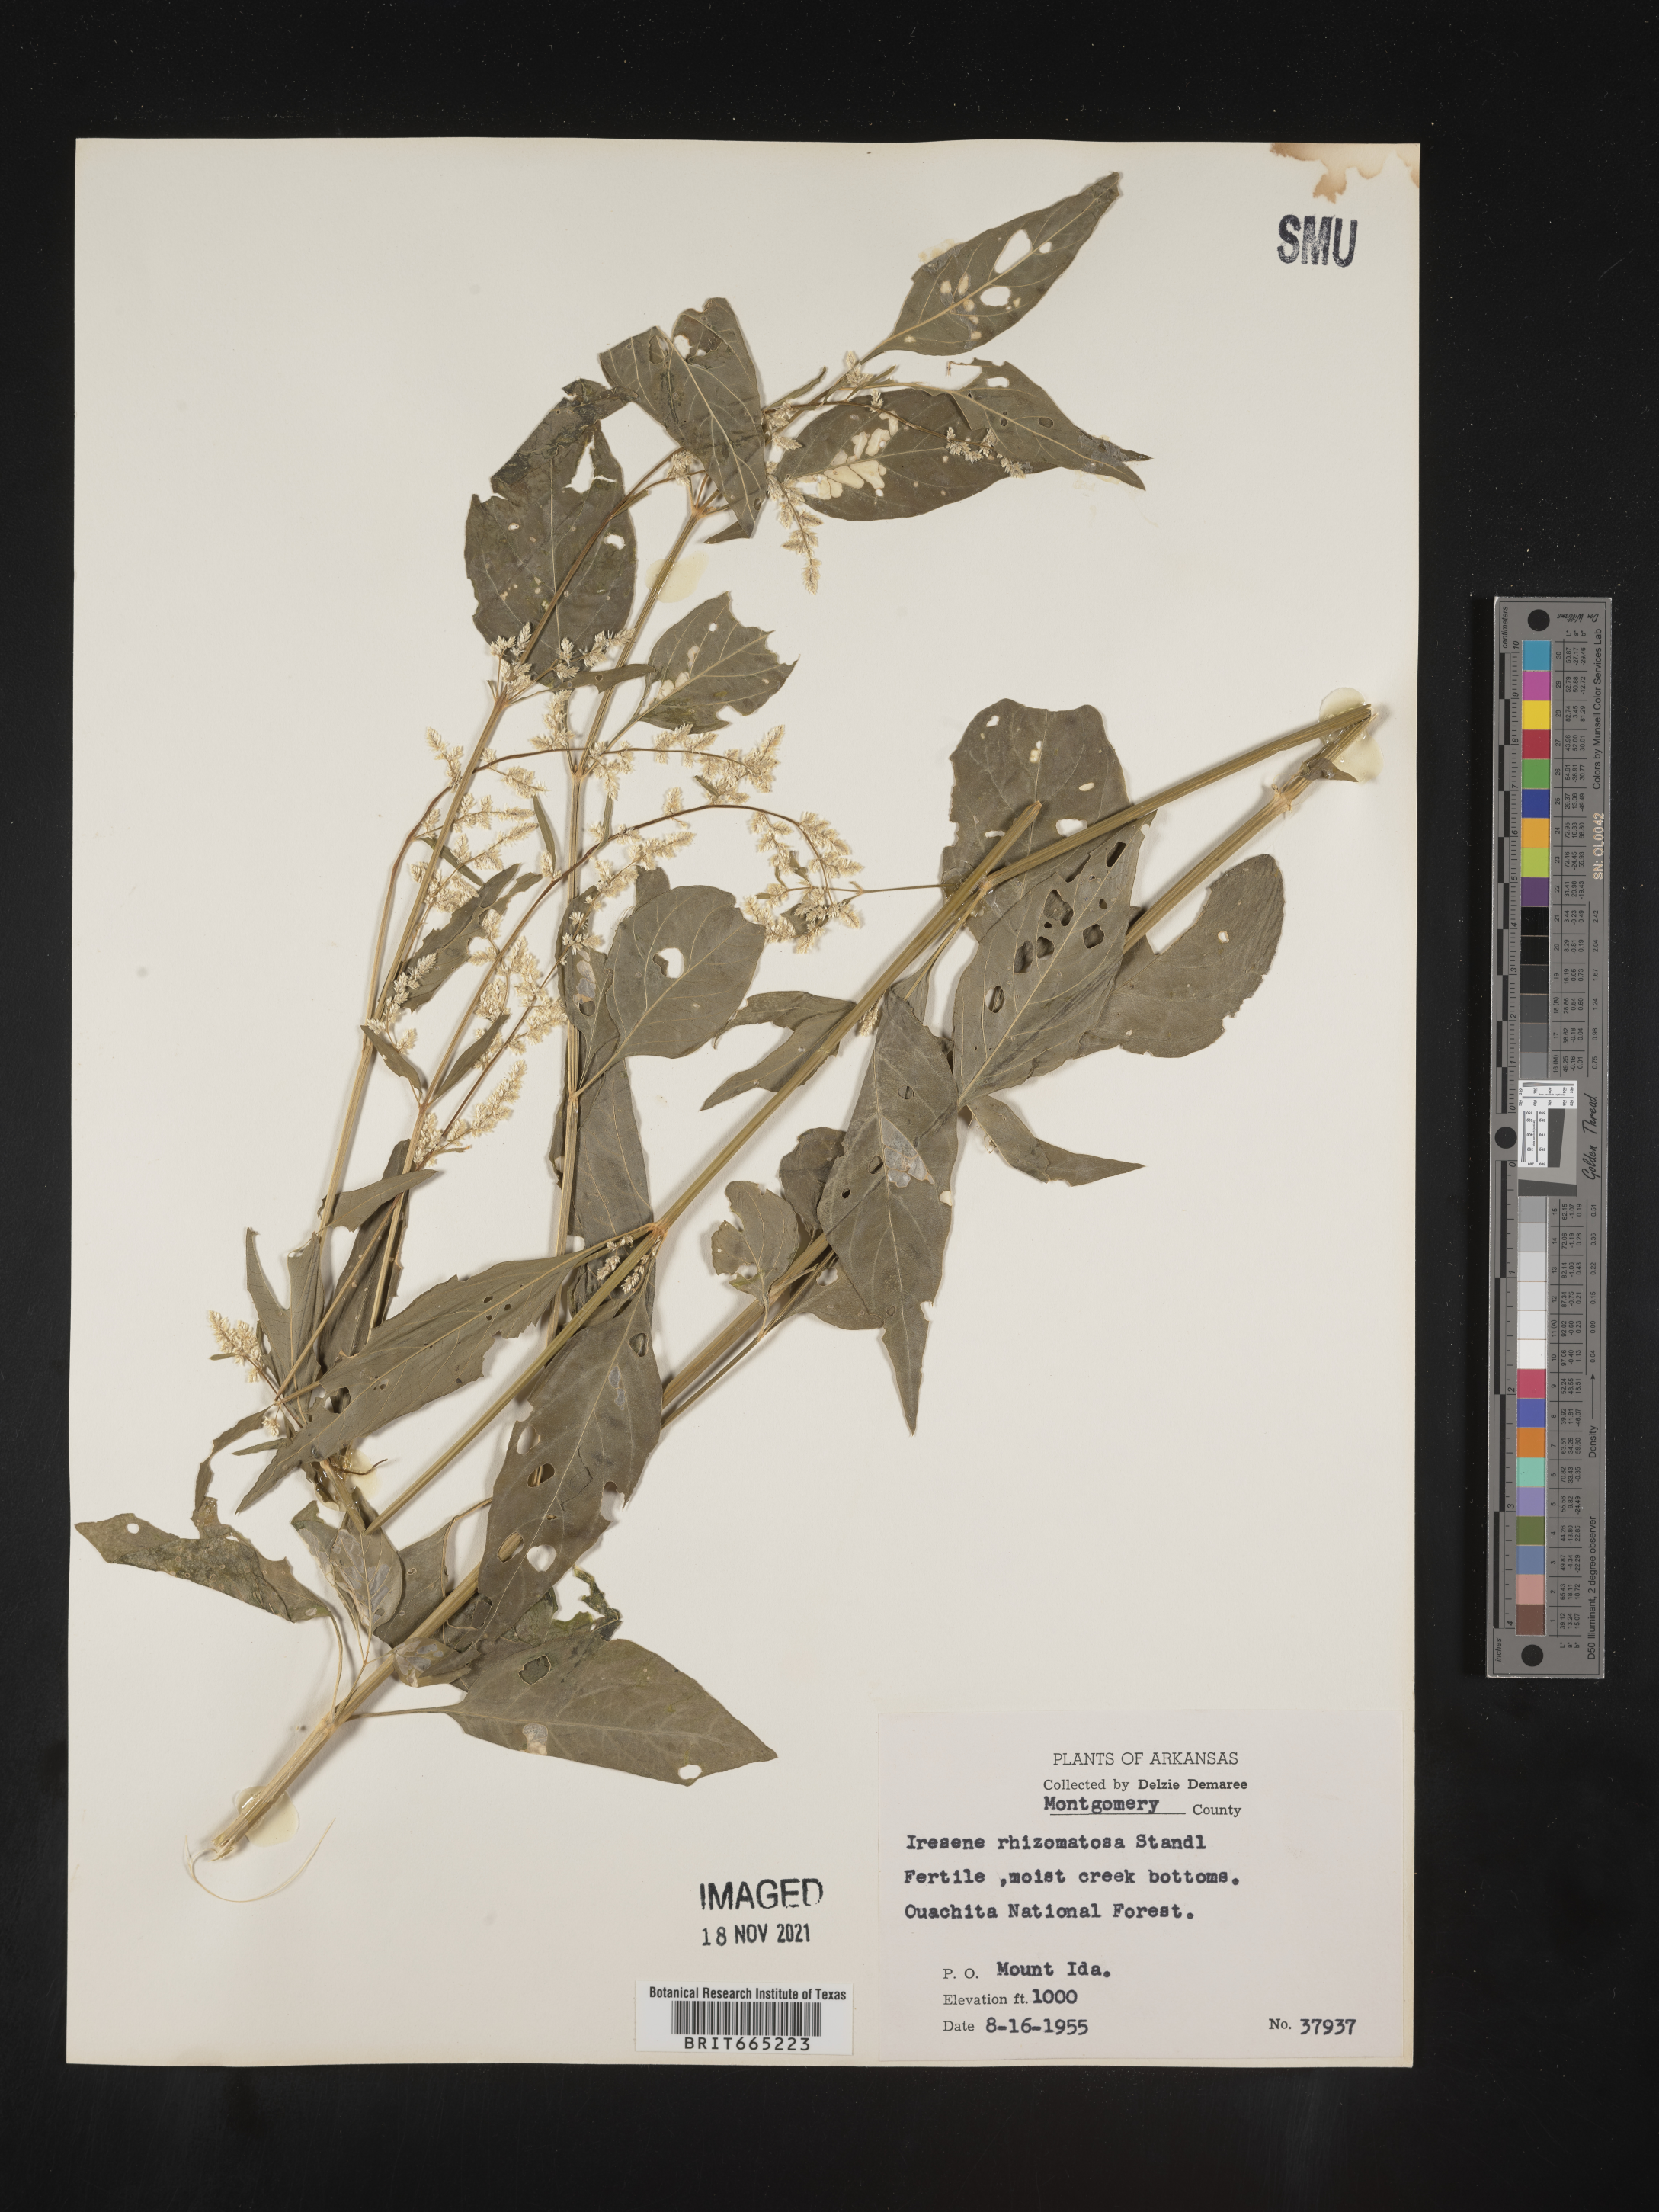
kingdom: Plantae
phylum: Tracheophyta
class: Magnoliopsida
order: Caryophyllales
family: Amaranthaceae
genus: Iresine
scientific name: Iresine rhizomatosa
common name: Juda's-bush
